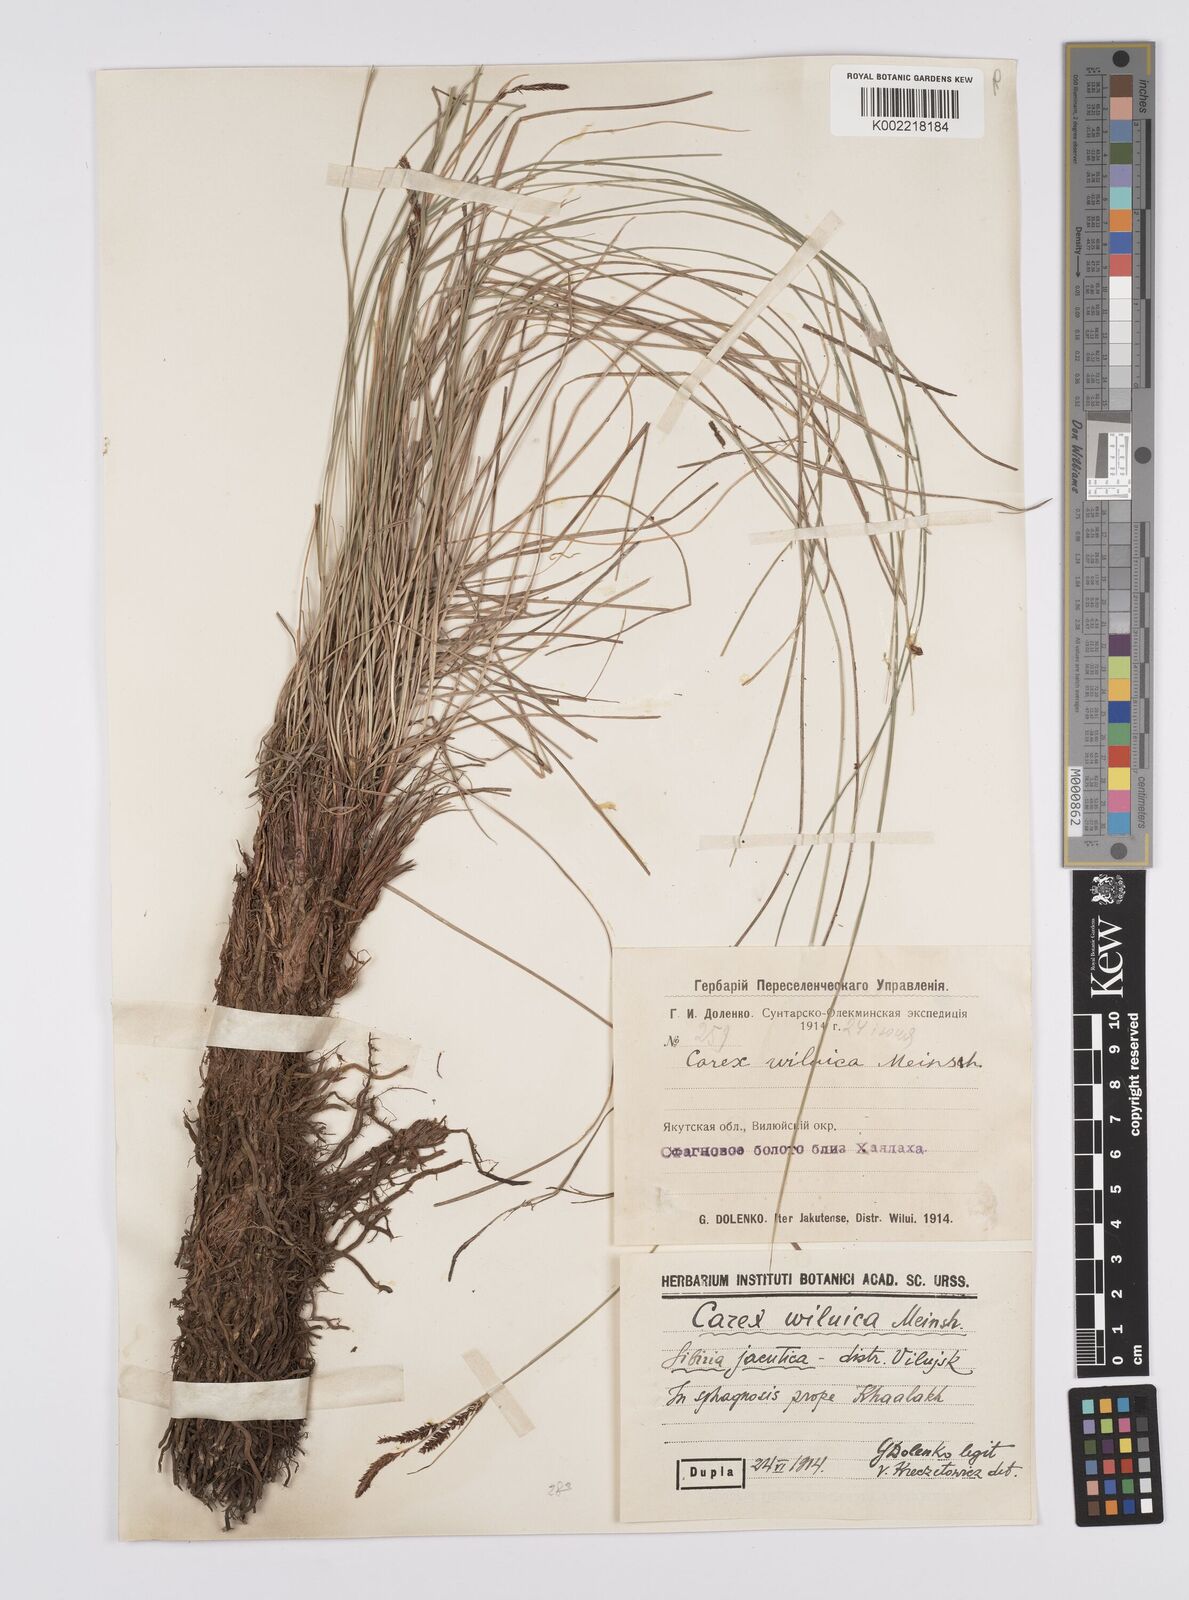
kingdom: Plantae
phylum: Tracheophyta
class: Liliopsida
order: Poales
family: Cyperaceae
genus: Carex
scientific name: Carex nigra
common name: Common sedge
